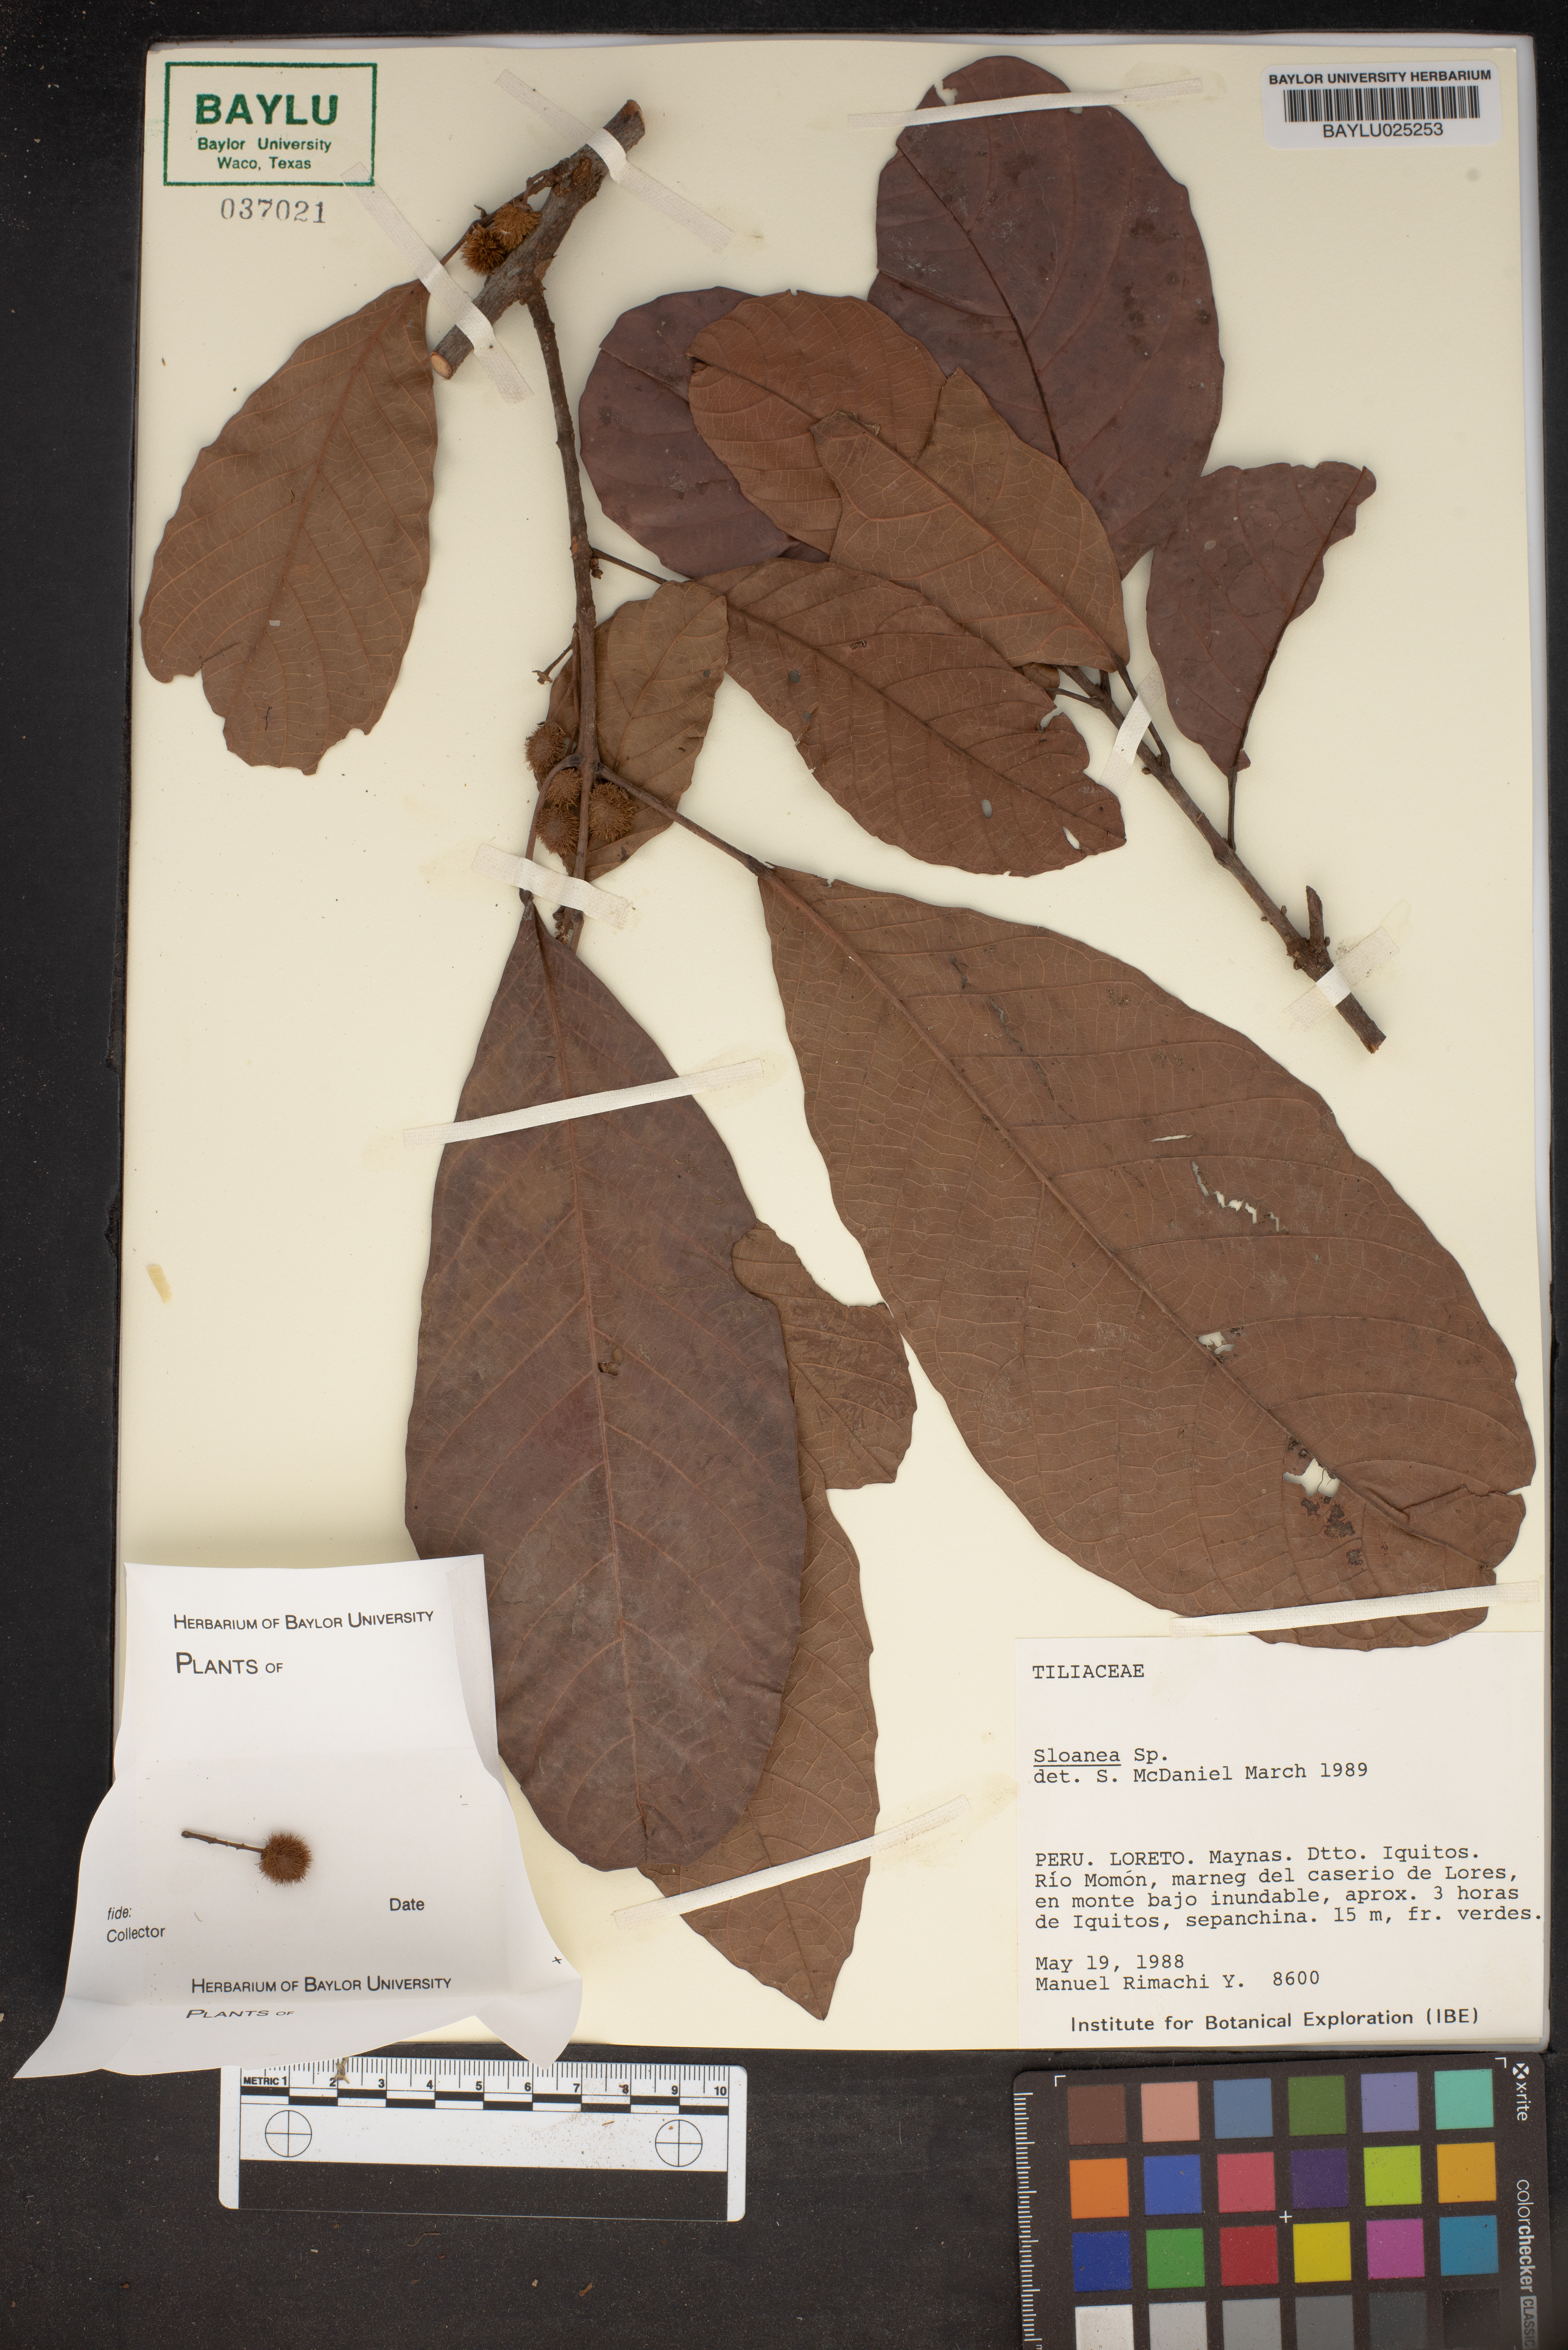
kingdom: Plantae
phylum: Tracheophyta
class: Magnoliopsida
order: Oxalidales
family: Elaeocarpaceae
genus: Sloanea
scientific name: Sloanea
